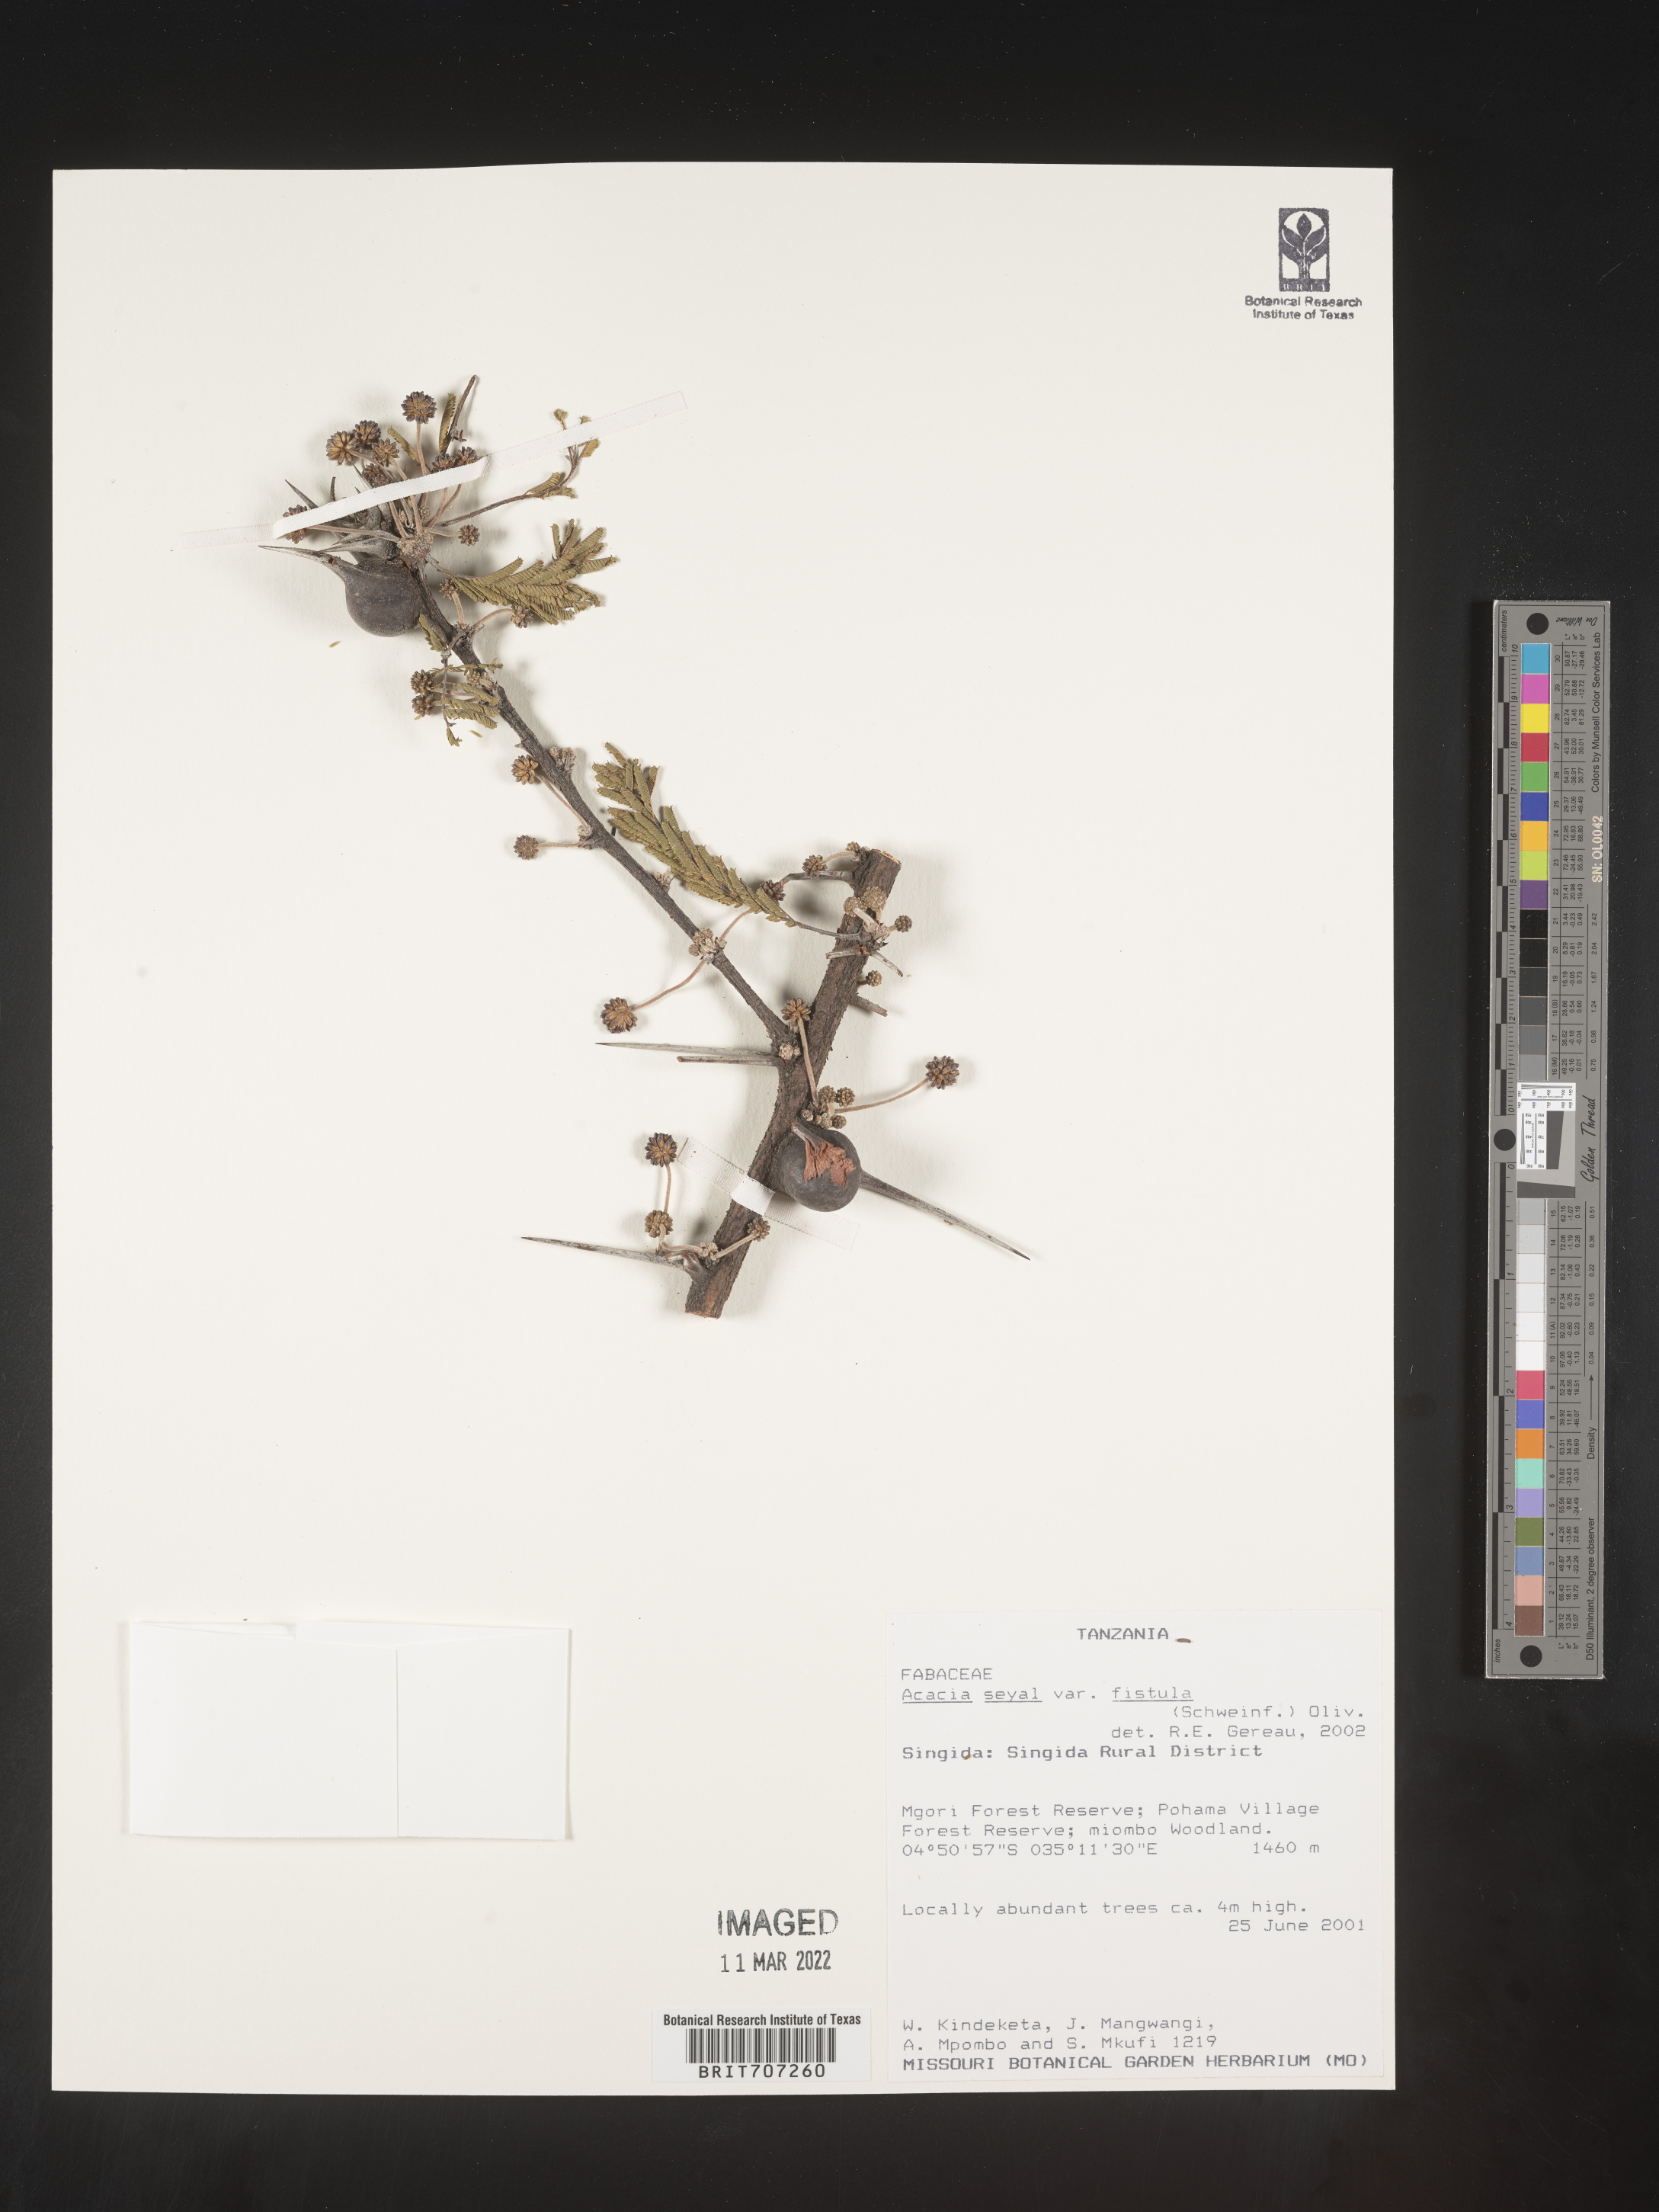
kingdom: Plantae
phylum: Tracheophyta
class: Magnoliopsida
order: Fabales
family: Fabaceae
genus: Acacia
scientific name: Acacia
